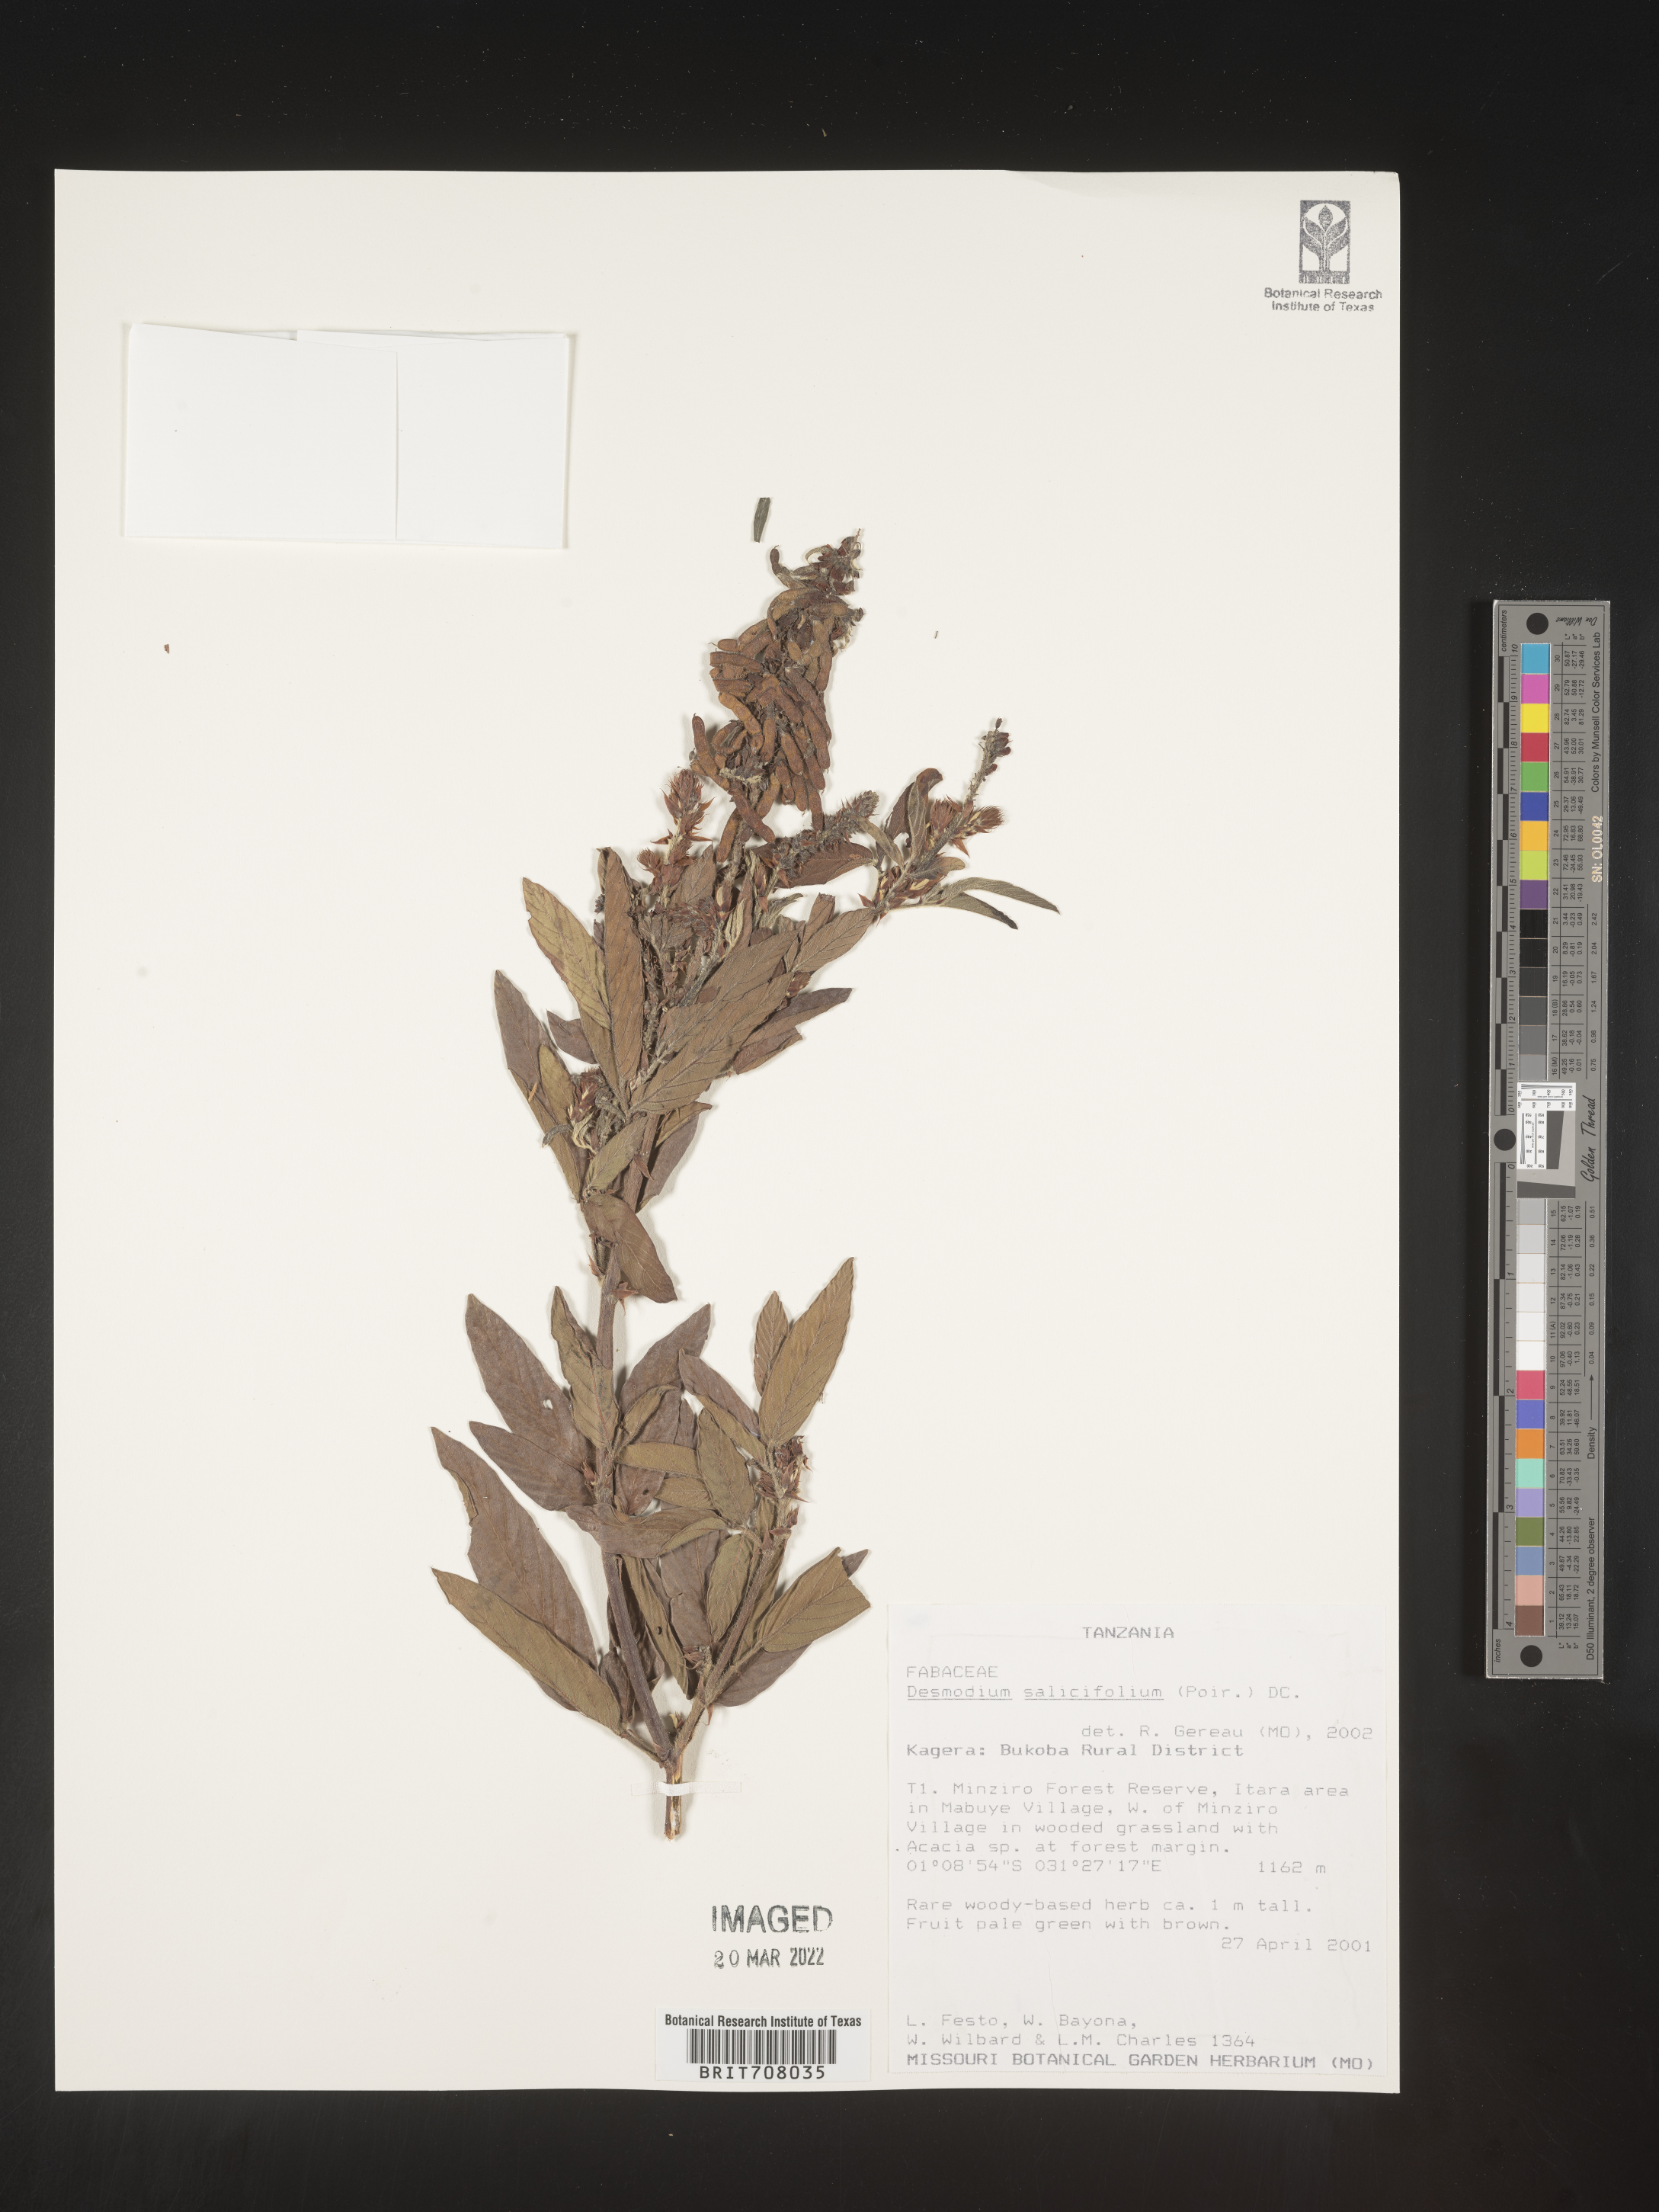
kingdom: Plantae
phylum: Tracheophyta
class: Magnoliopsida
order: Fabales
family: Fabaceae
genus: Desmodium
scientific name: Desmodium
